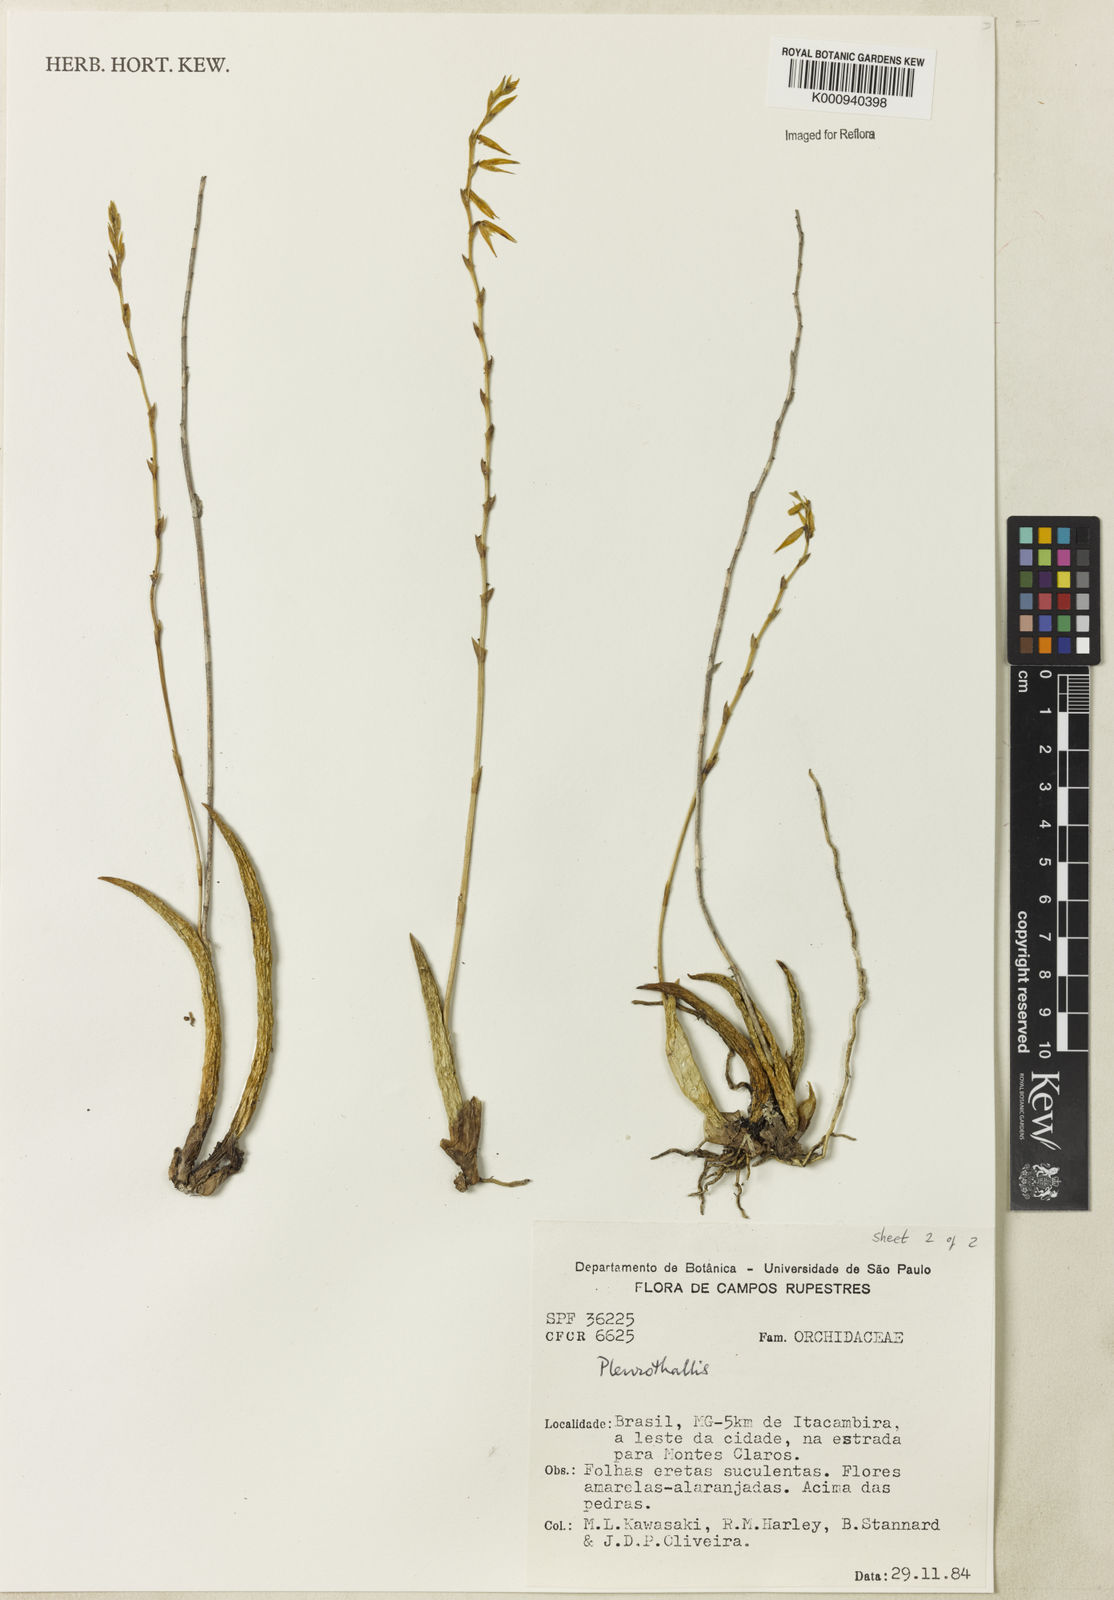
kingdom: Plantae
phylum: Tracheophyta
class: Liliopsida
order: Asparagales
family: Orchidaceae
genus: Acianthera
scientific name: Acianthera adamantinensis
